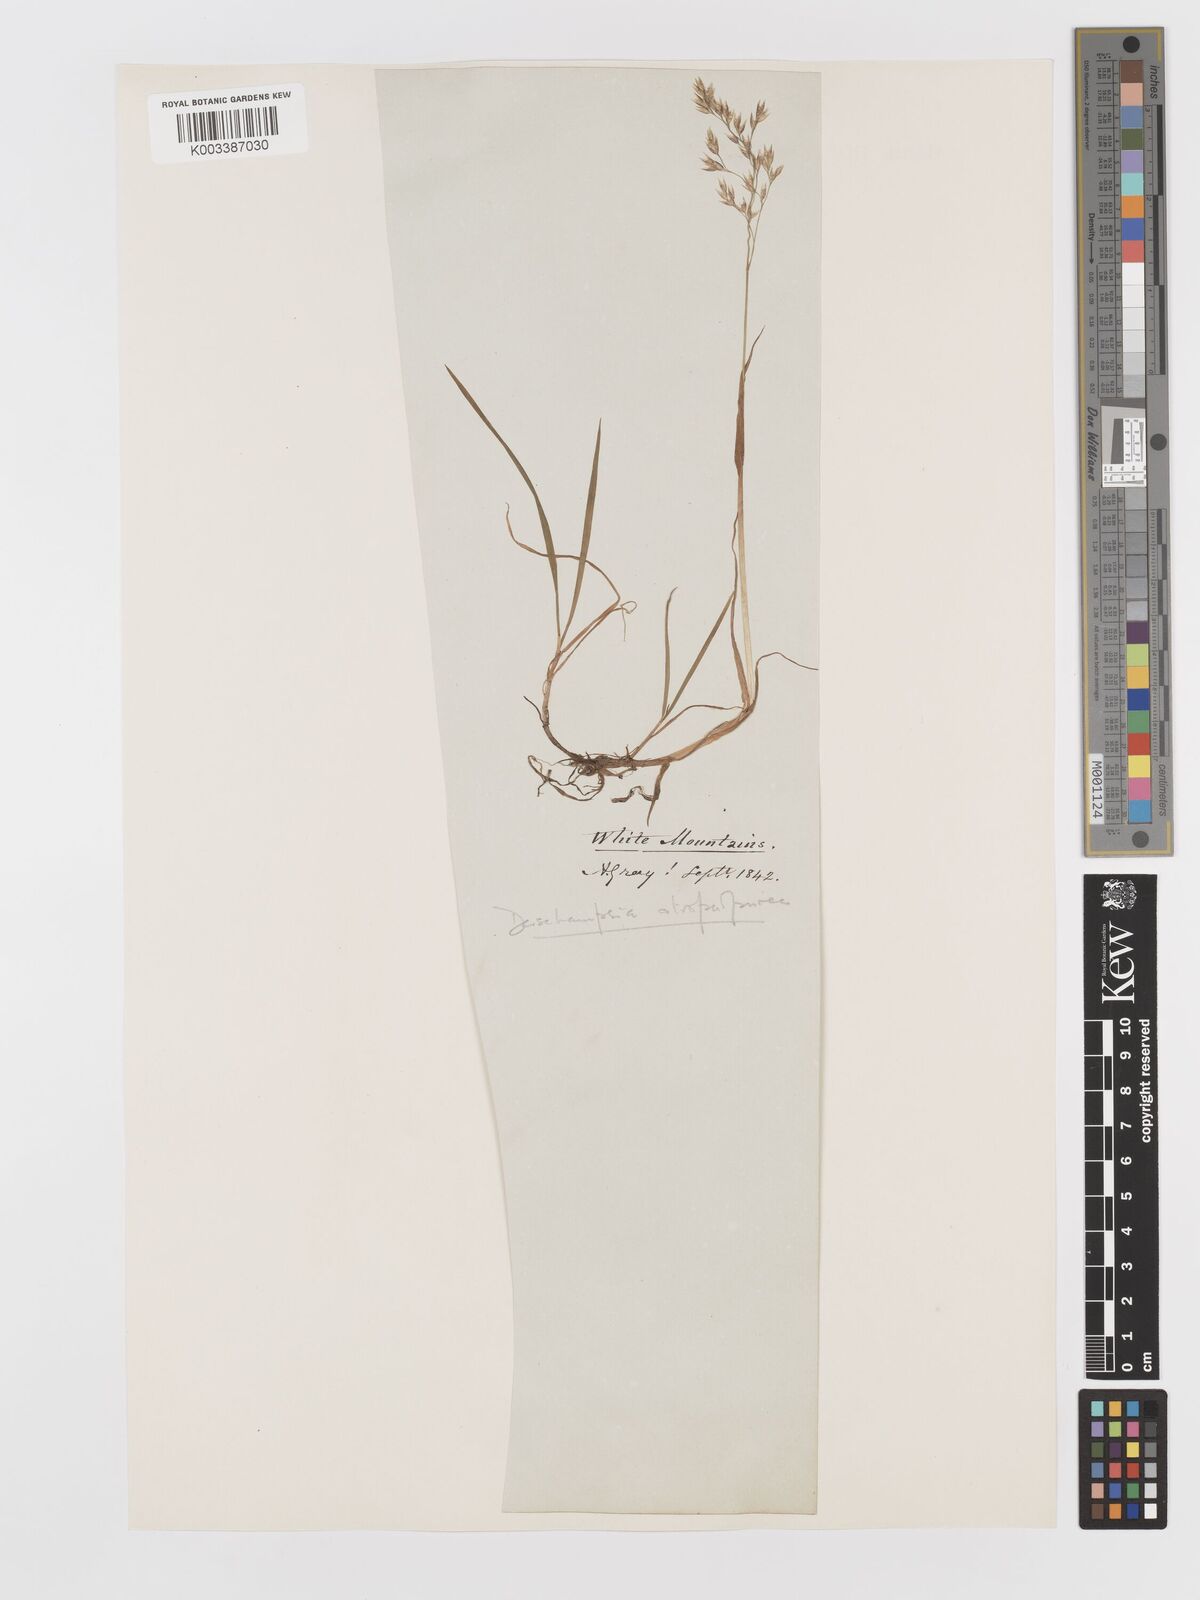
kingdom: Plantae
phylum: Tracheophyta
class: Liliopsida
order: Poales
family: Poaceae
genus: Vahlodea
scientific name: Vahlodea atropurpurea
